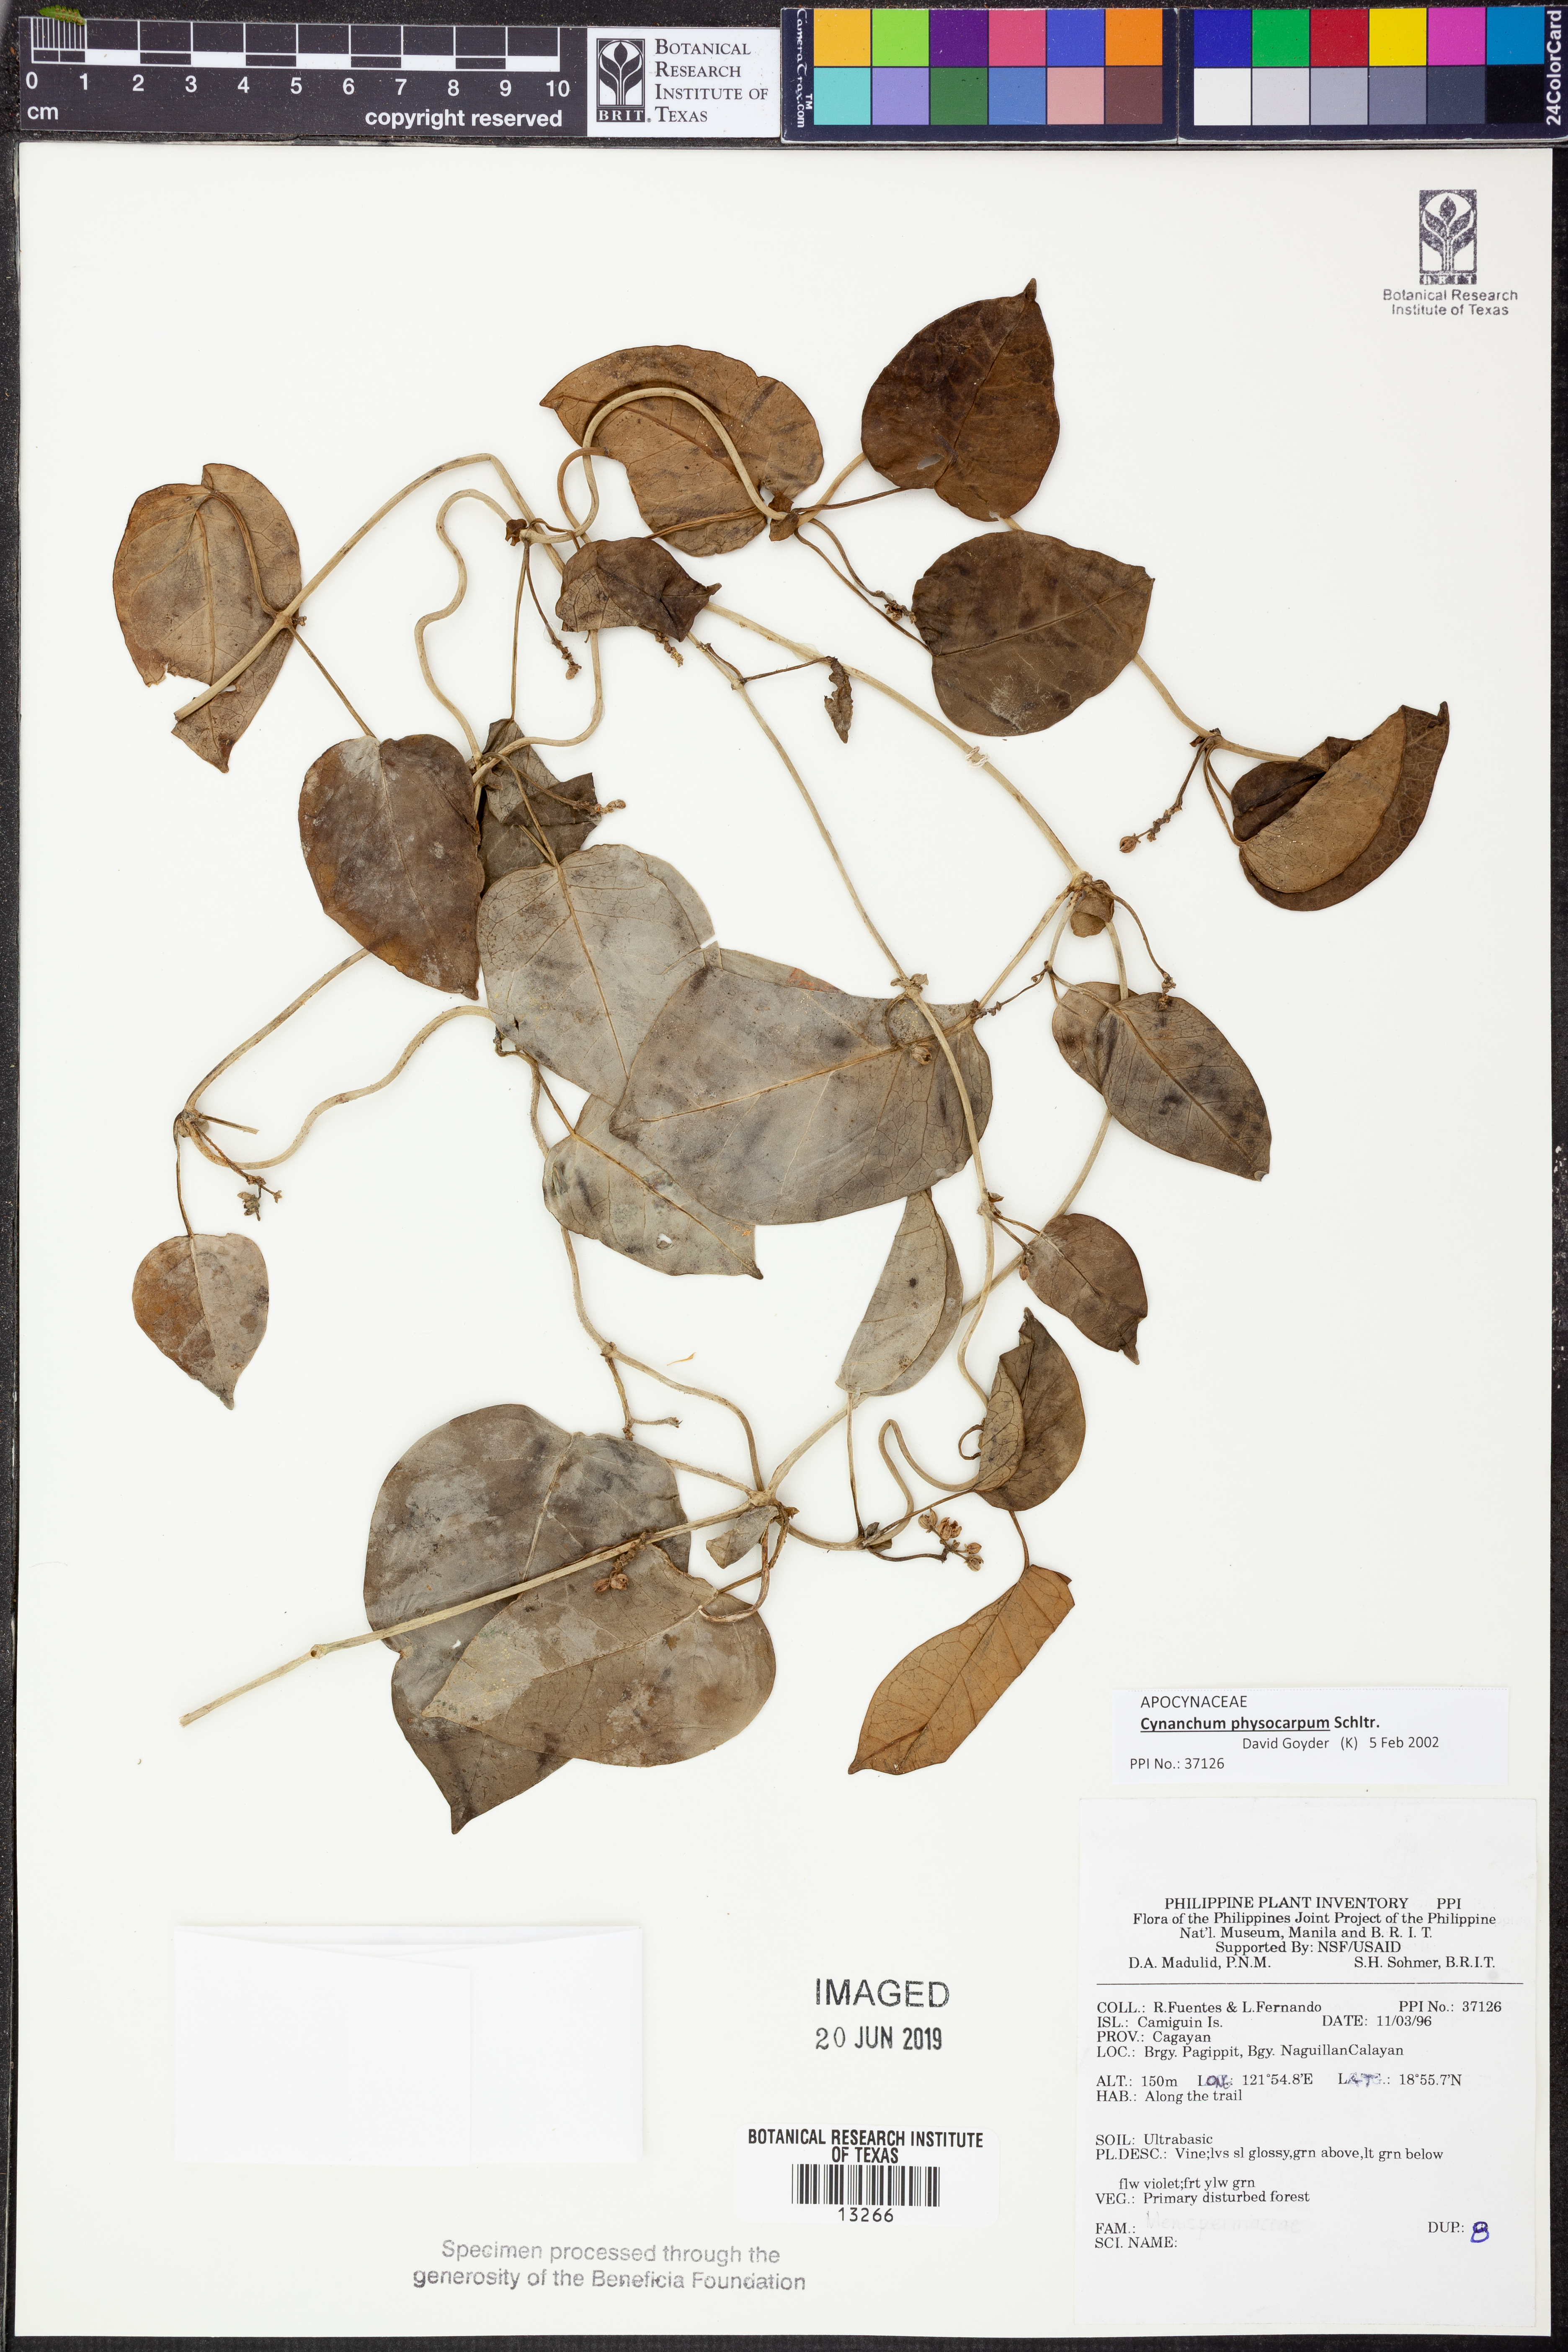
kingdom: Plantae
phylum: Tracheophyta
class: Magnoliopsida
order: Gentianales
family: Apocynaceae
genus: Cynanchum
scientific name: Cynanchum physocarpum
